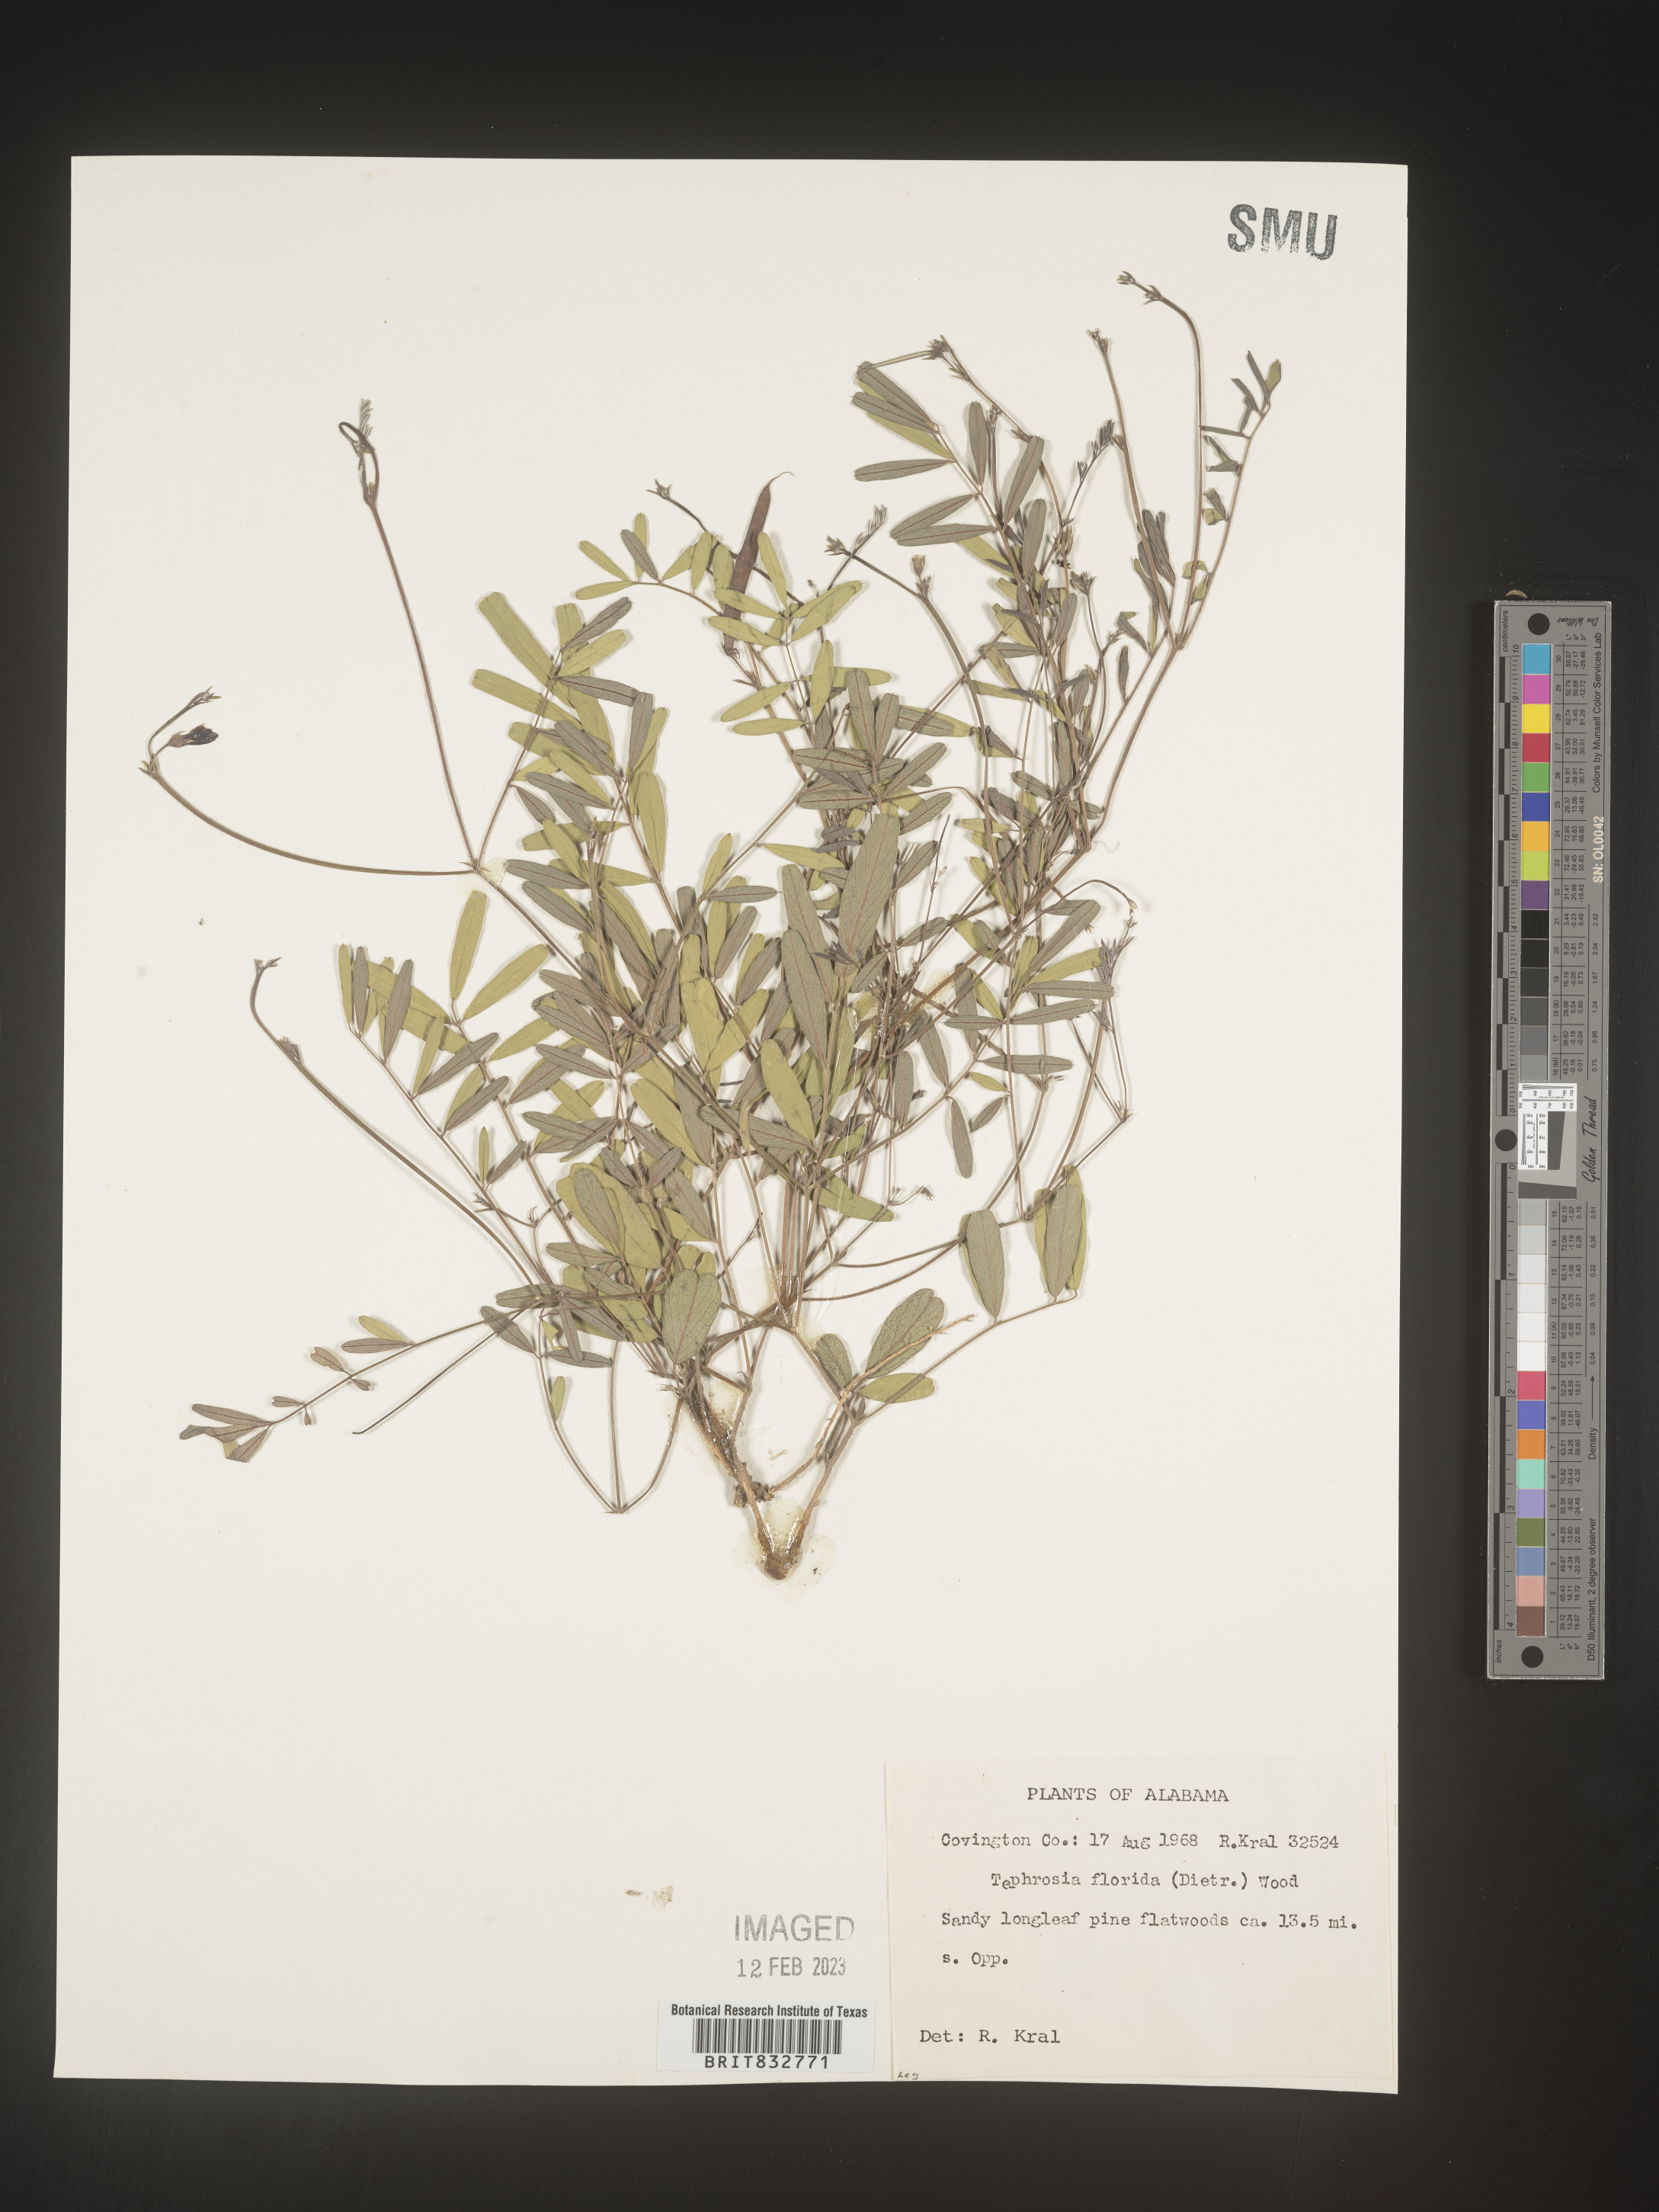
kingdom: Plantae
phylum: Tracheophyta
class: Magnoliopsida
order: Fabales
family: Fabaceae
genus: Tephrosia
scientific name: Tephrosia florida
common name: Florida hoary-pea
